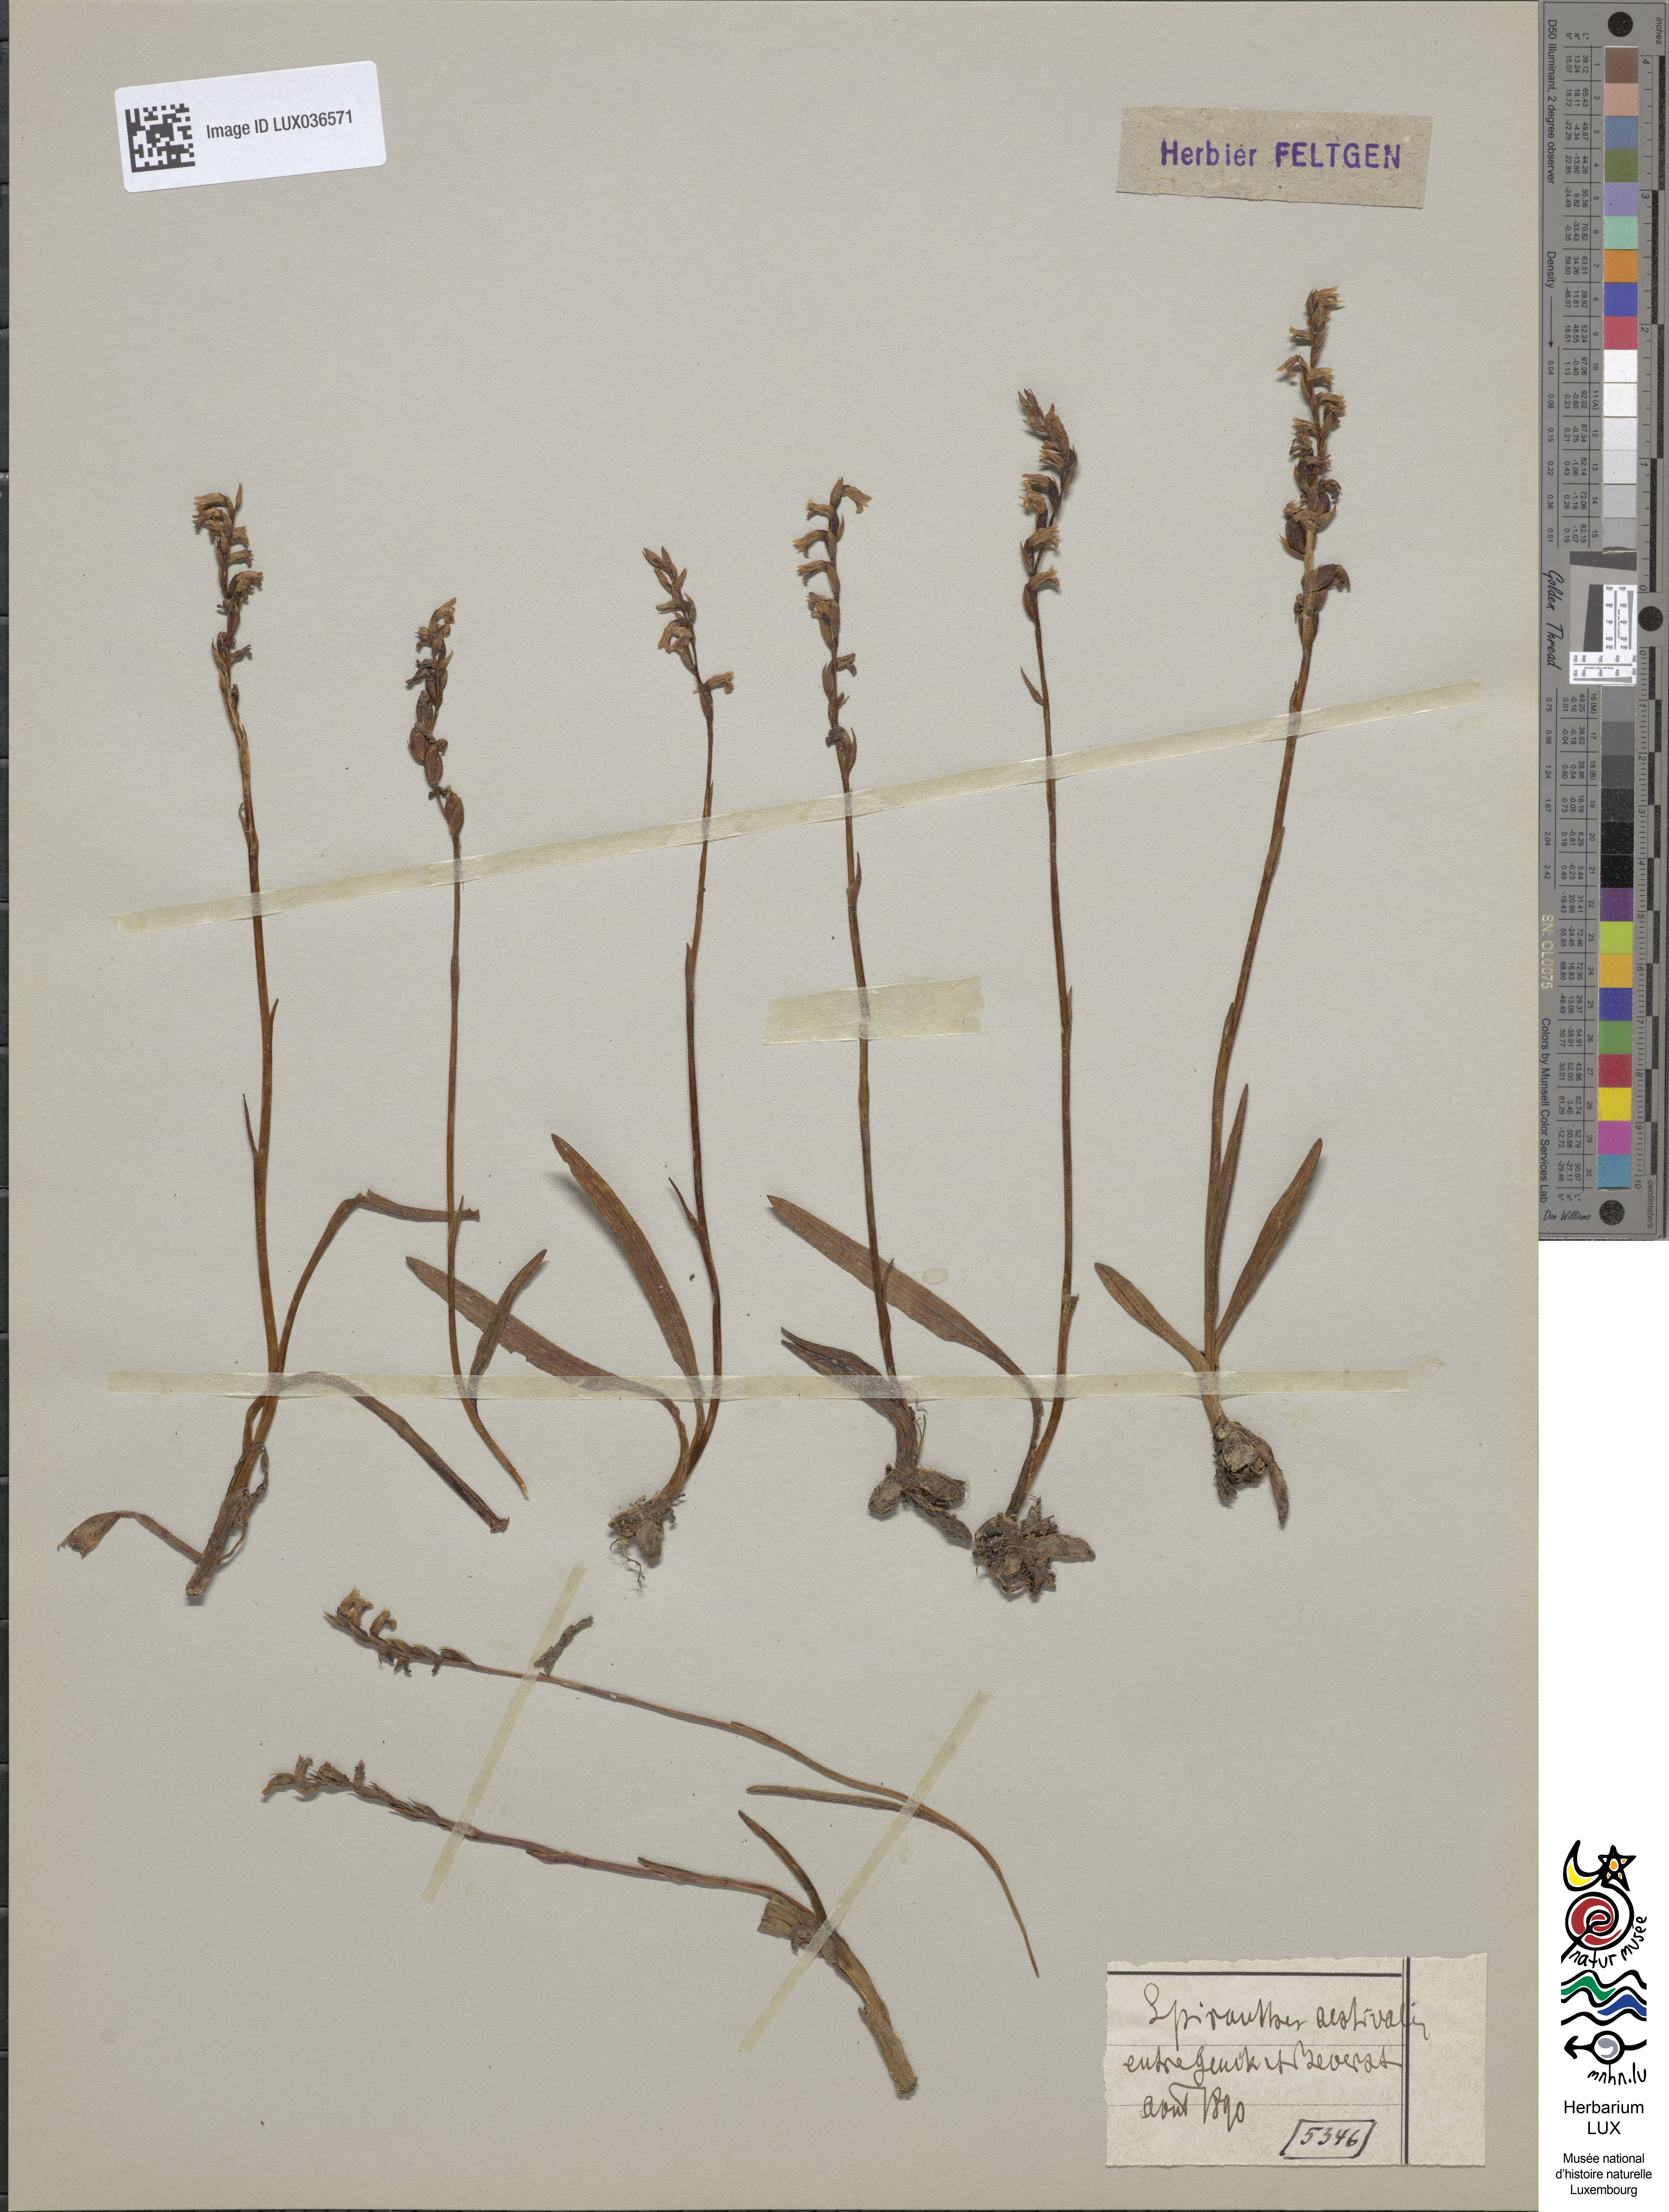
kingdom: Plantae
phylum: Tracheophyta
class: Liliopsida
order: Asparagales
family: Orchidaceae
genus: Spiranthes
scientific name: Spiranthes aestivalis
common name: Summer lady's-tresses
